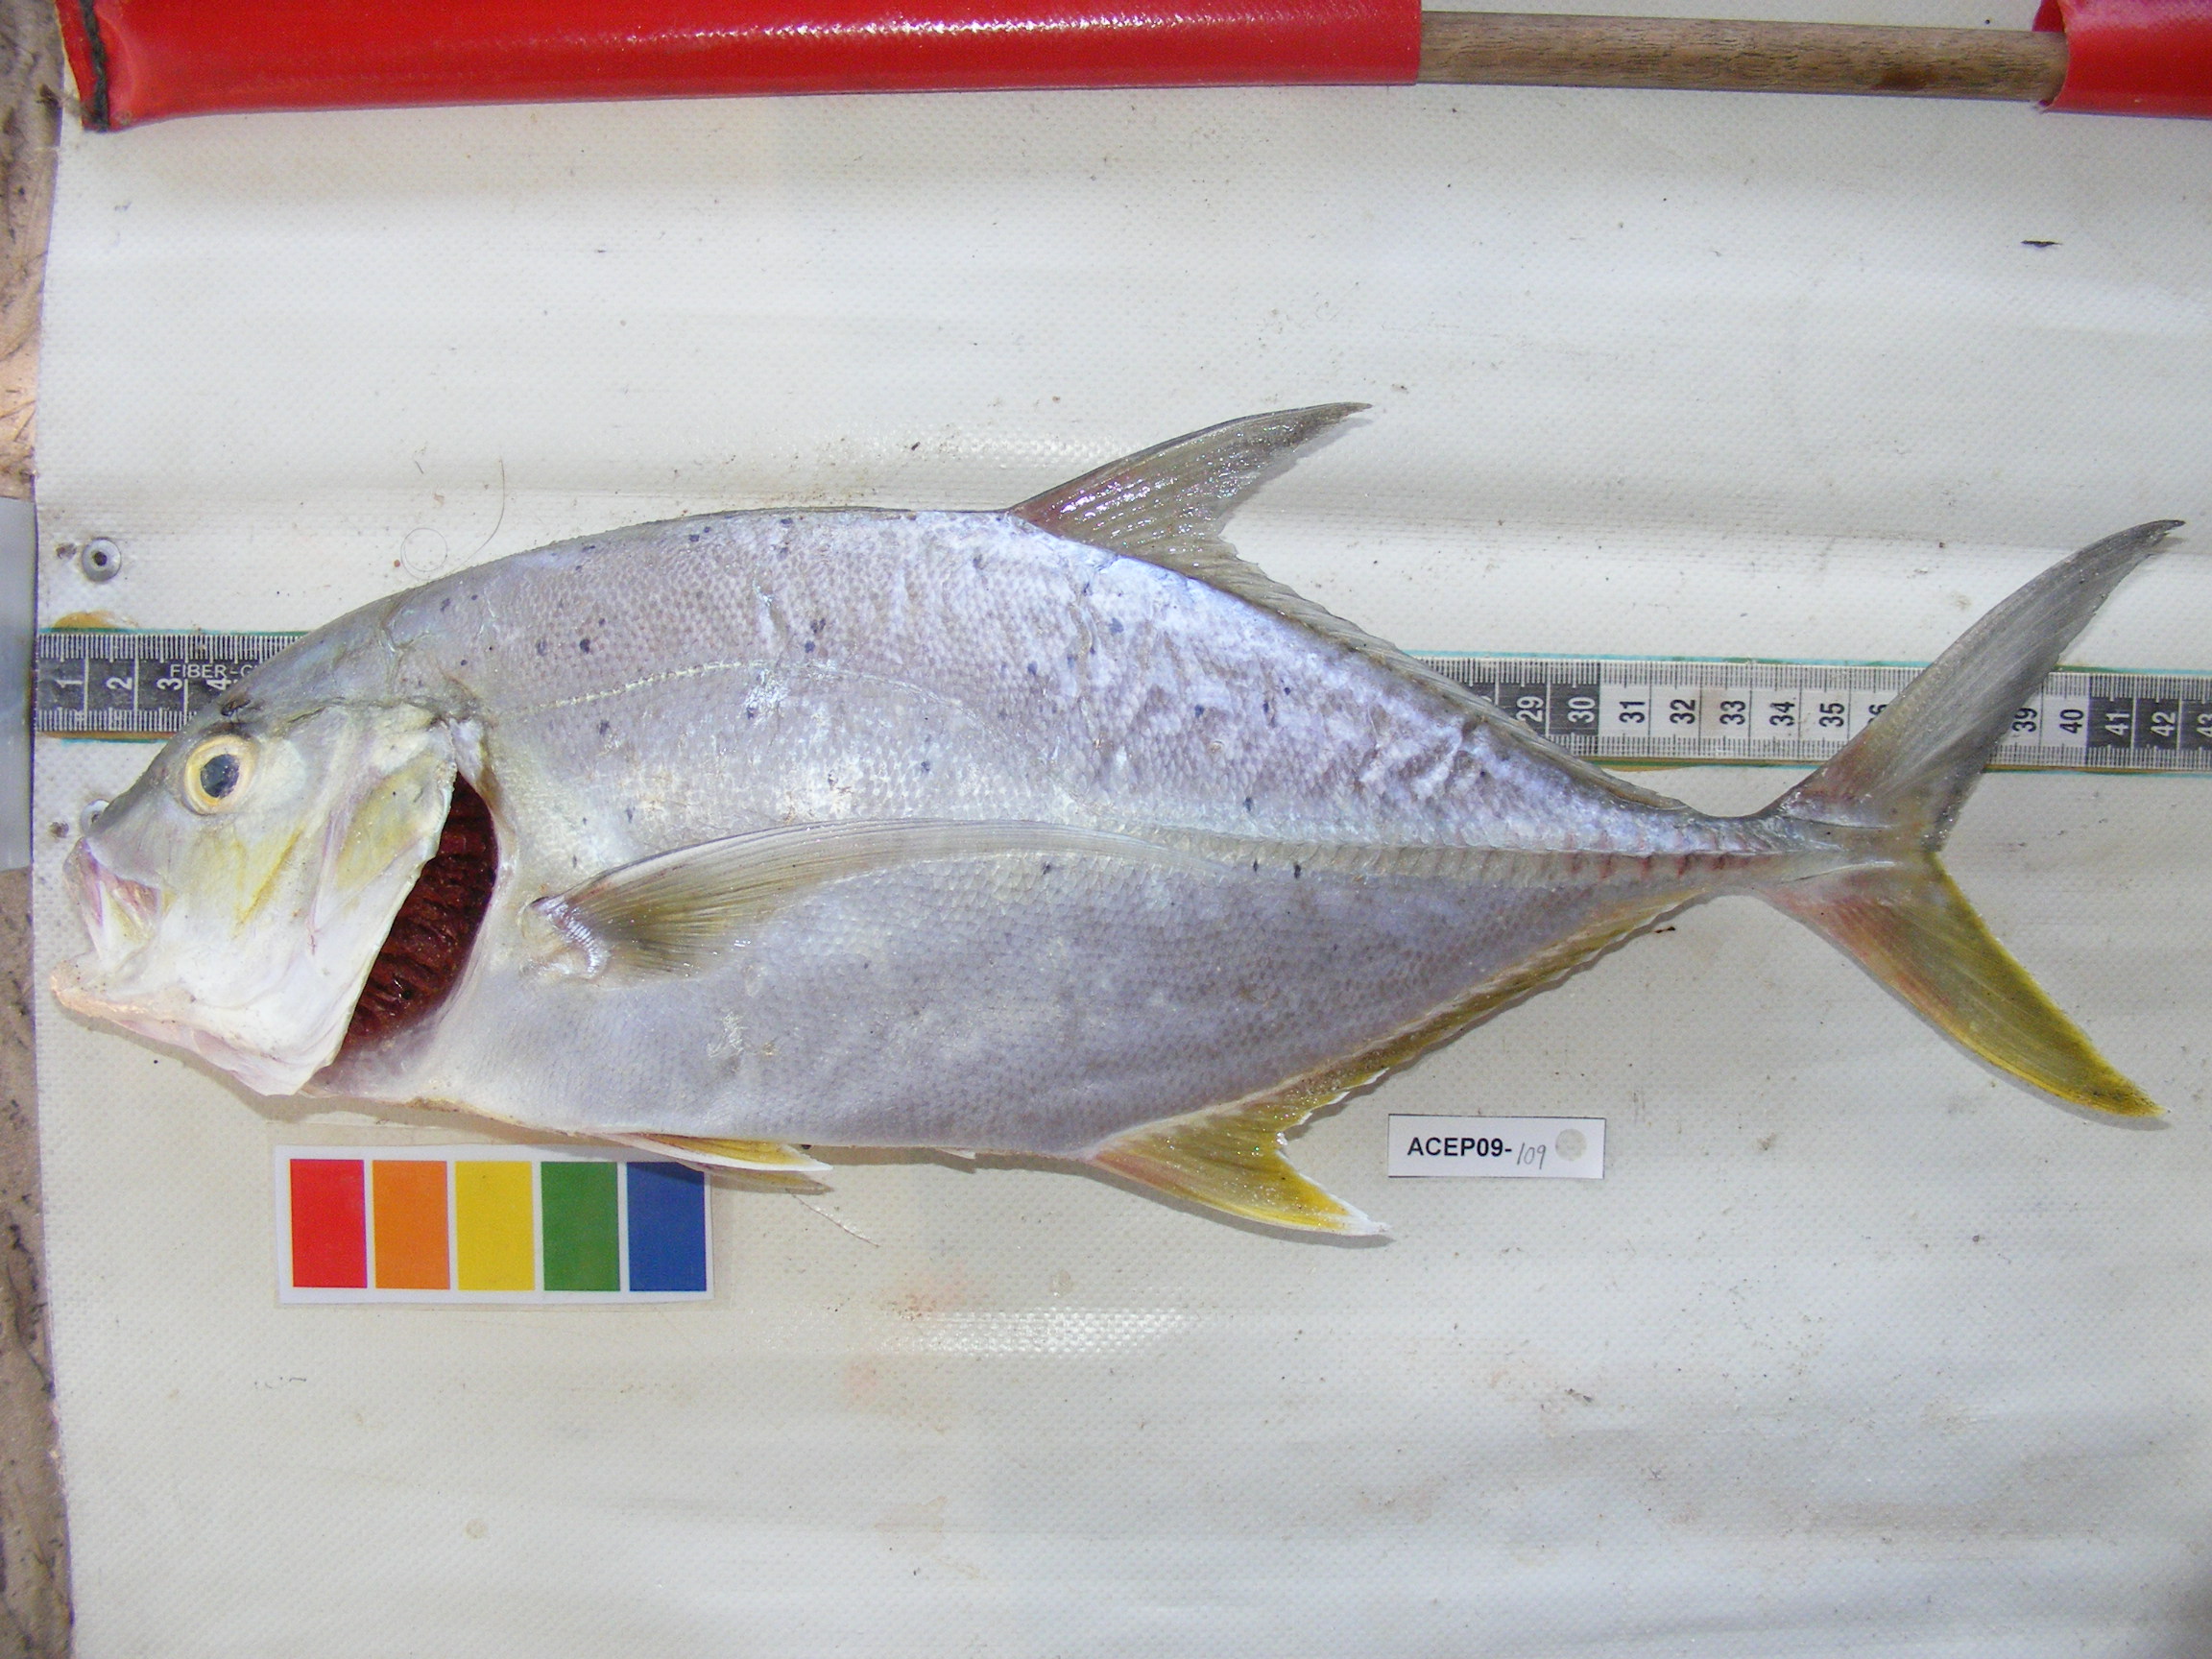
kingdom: Animalia
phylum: Chordata
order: Perciformes
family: Carangidae
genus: Caranx
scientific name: Caranx papuensis
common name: Brassy trevally
